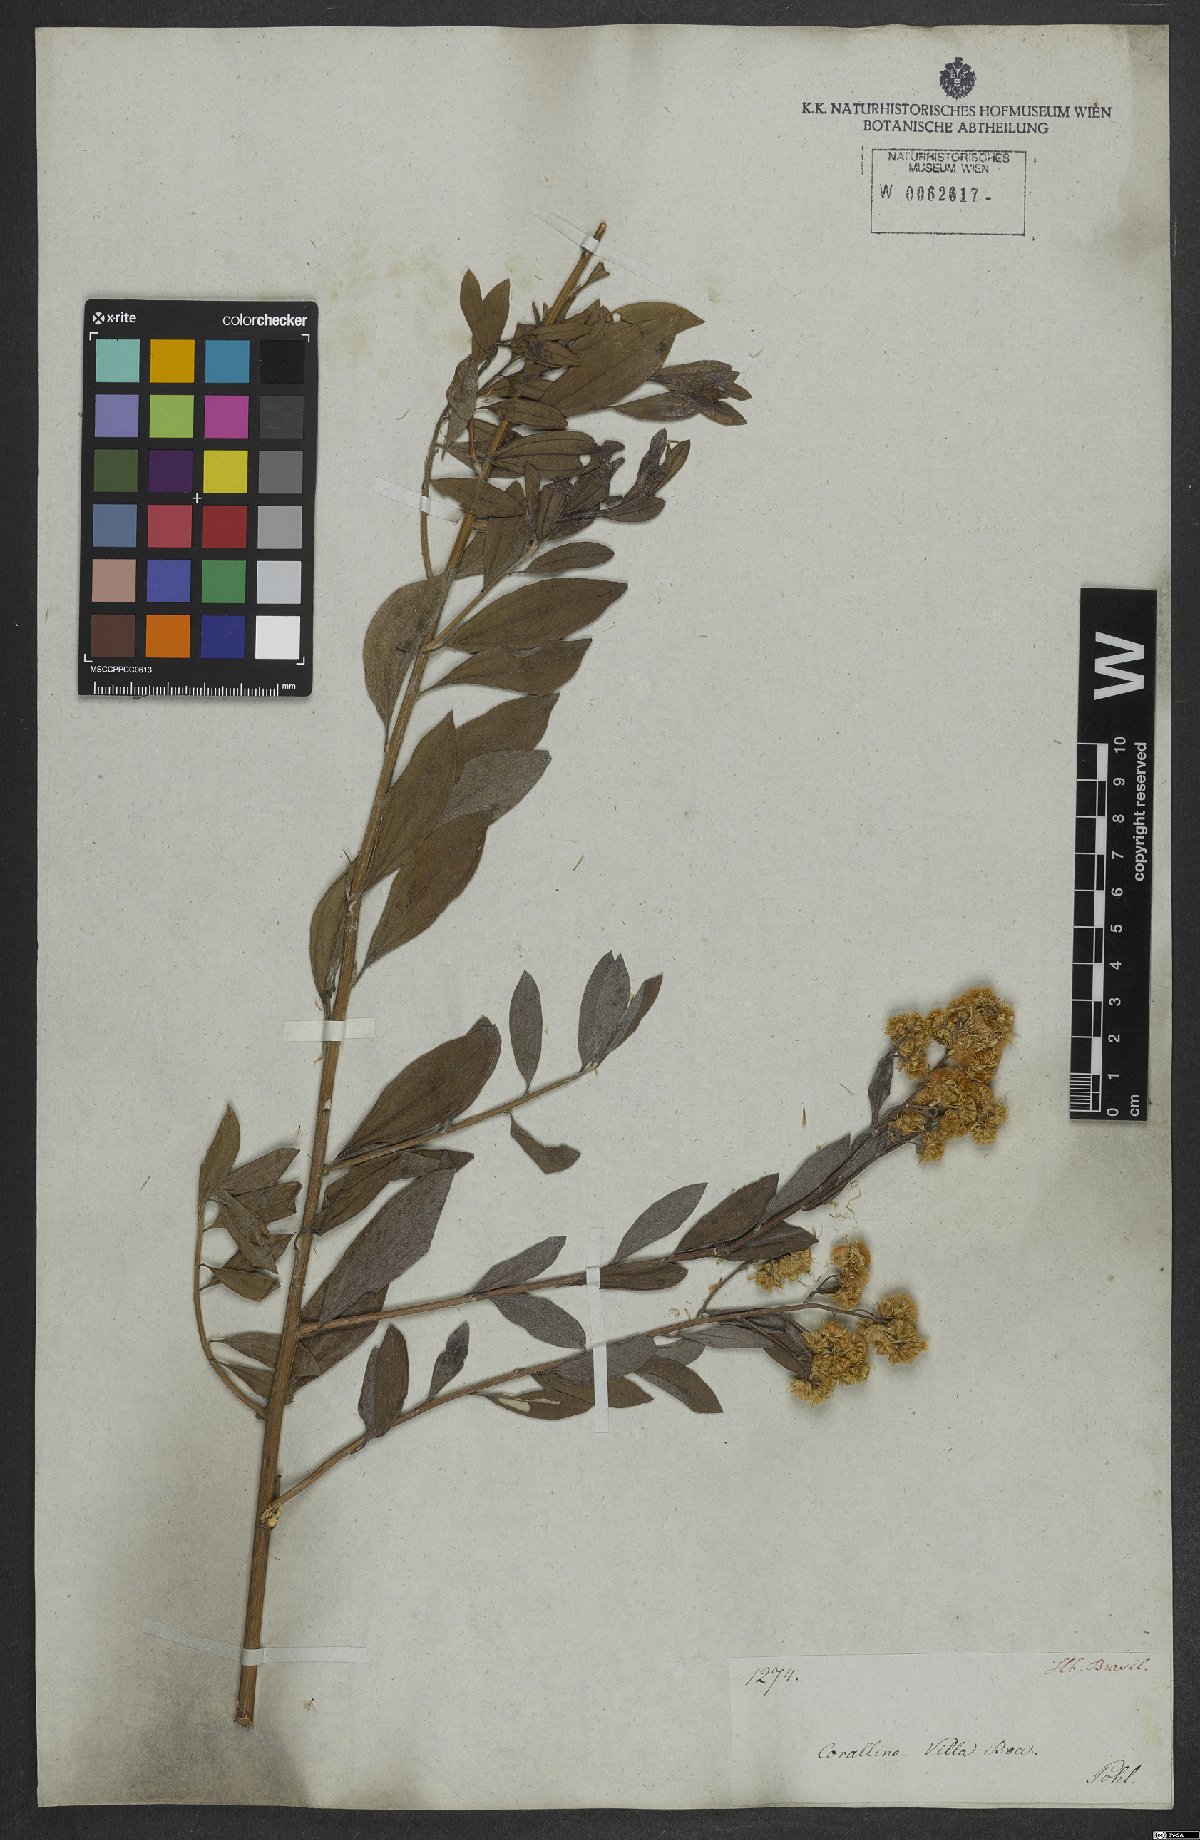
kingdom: Plantae
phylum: Tracheophyta
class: Magnoliopsida
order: Asterales
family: Asteraceae
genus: Baccharis
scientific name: Baccharis trinervis
